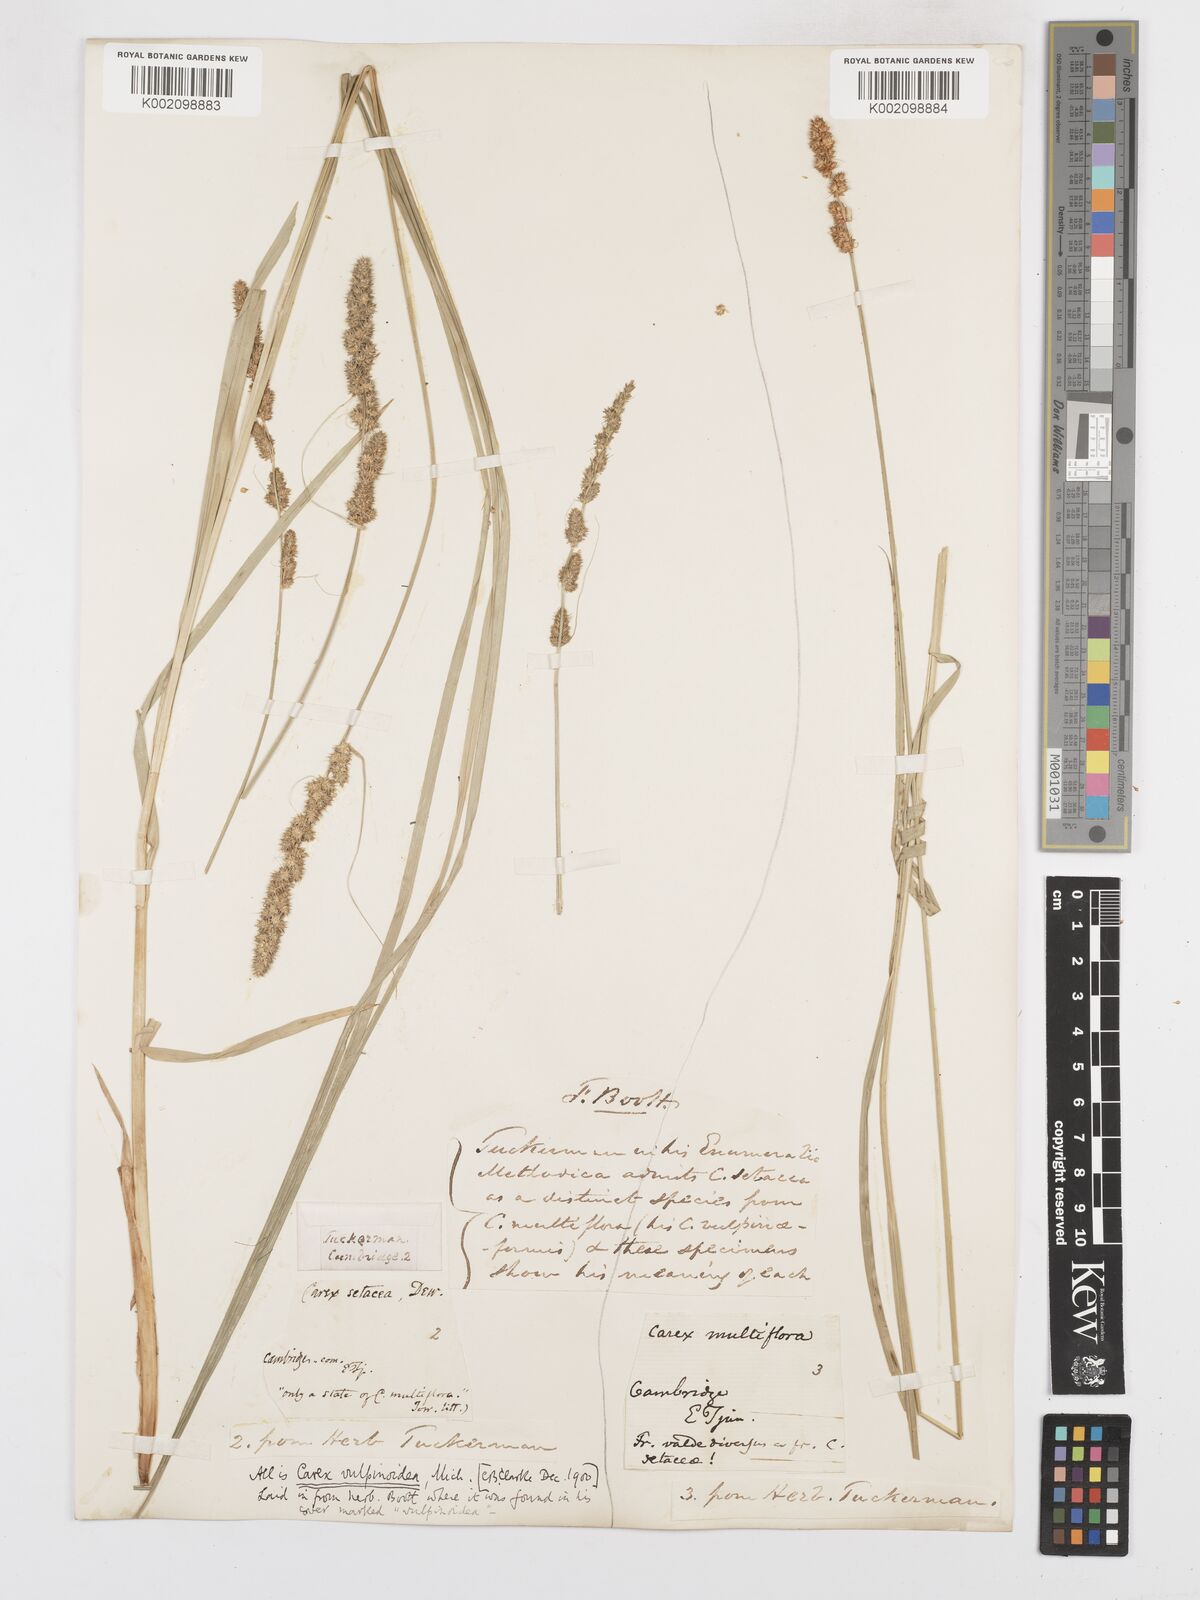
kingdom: Plantae
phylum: Tracheophyta
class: Liliopsida
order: Poales
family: Cyperaceae
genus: Carex
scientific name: Carex vulpinoidea
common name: American fox-sedge
